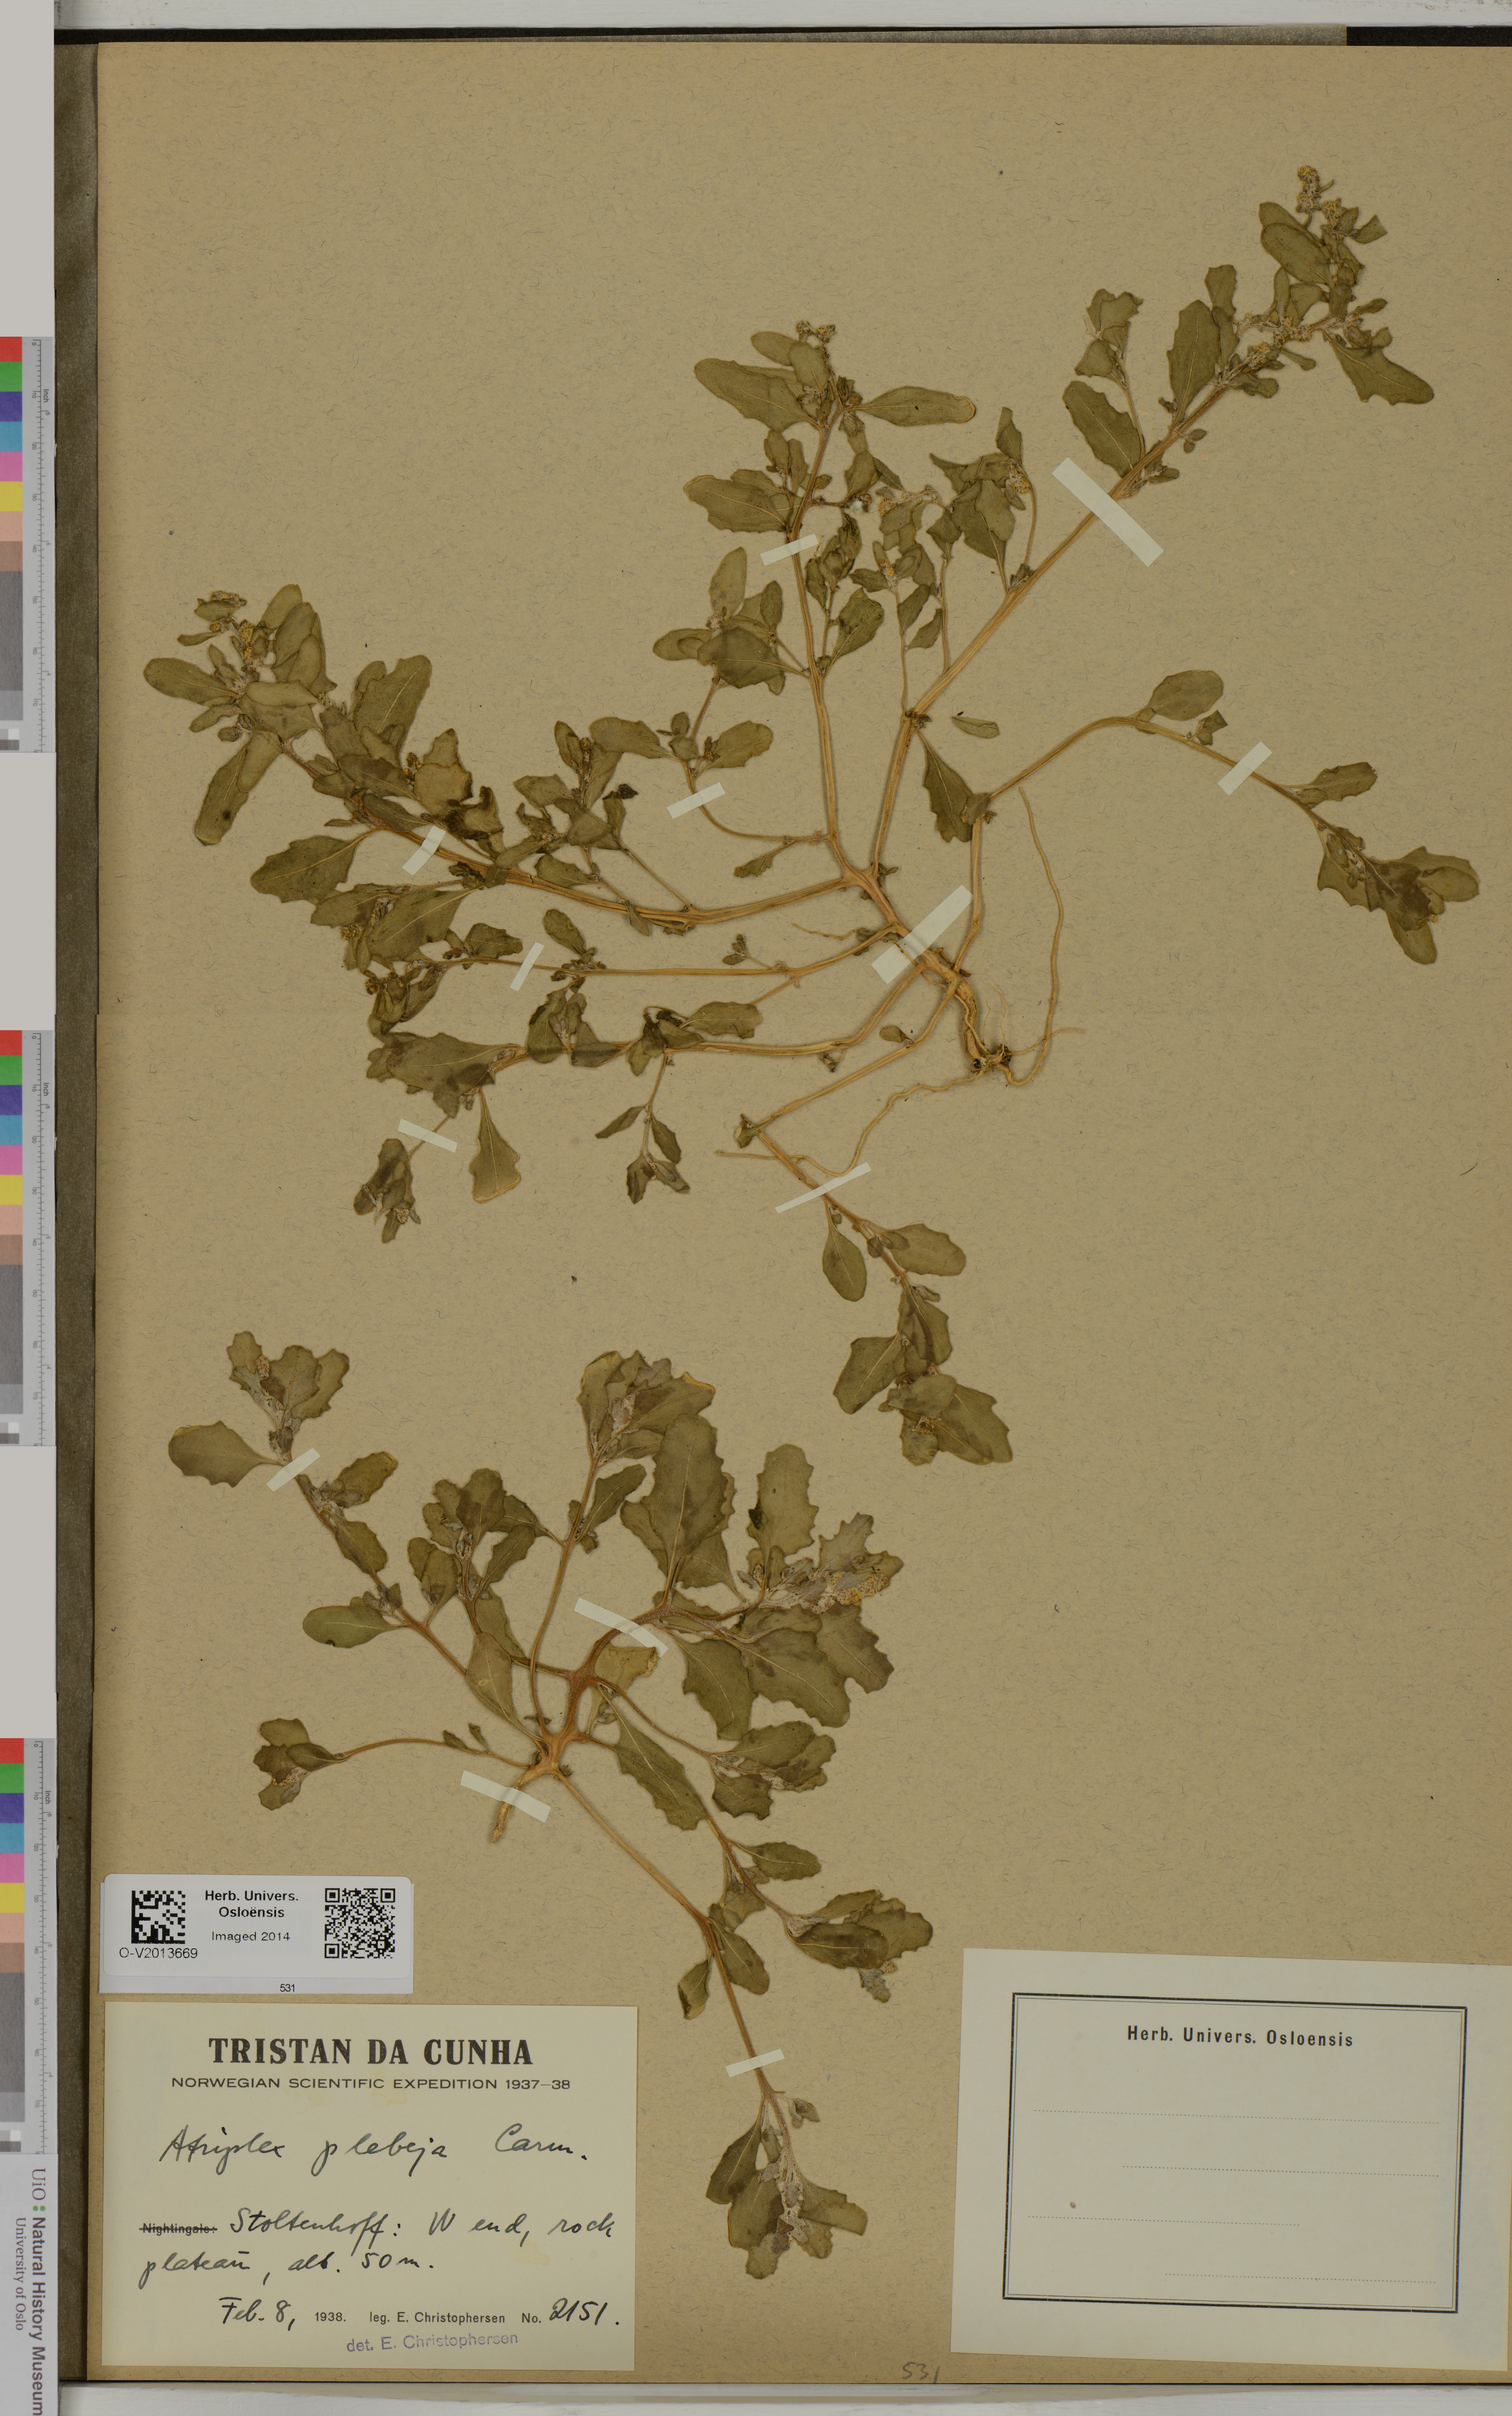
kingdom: Plantae
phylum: Tracheophyta
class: Magnoliopsida
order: Caryophyllales
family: Amaranthaceae
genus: Atriplex
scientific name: Atriplex plebeja
